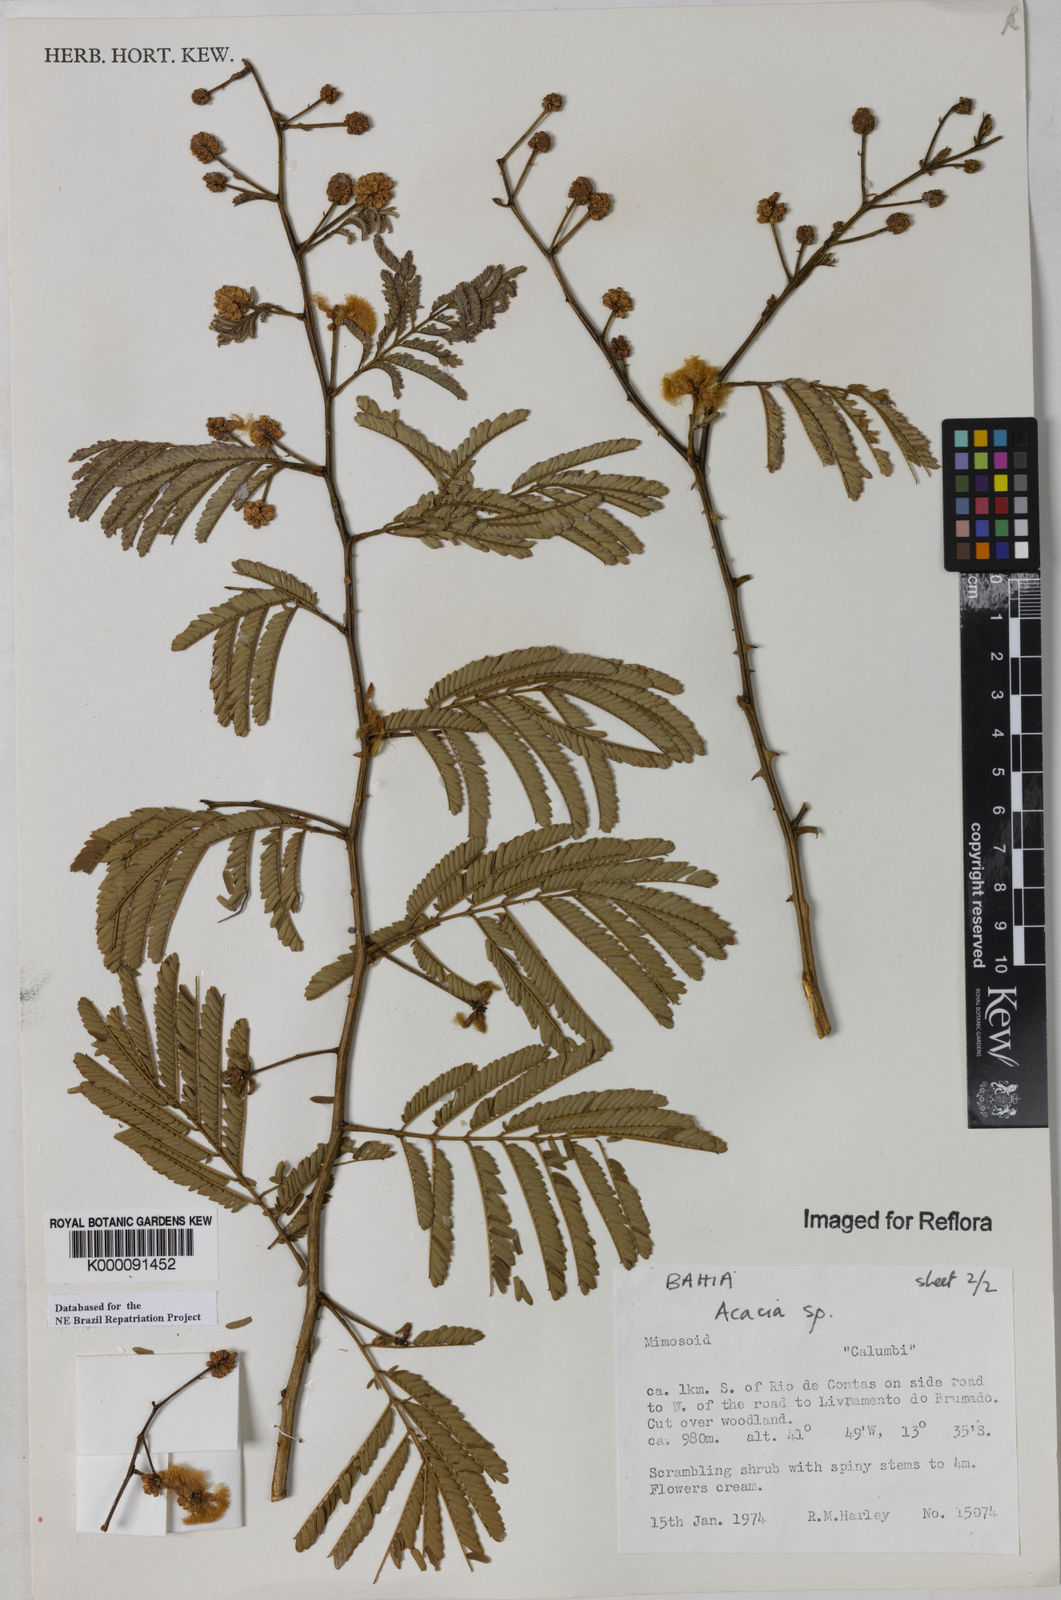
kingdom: Plantae
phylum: Tracheophyta
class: Magnoliopsida
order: Fabales
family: Fabaceae
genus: Acacia
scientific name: Acacia
